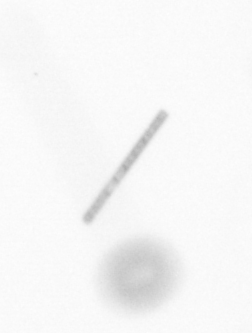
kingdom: Chromista
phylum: Ochrophyta
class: Bacillariophyceae
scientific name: Bacillariophyceae
